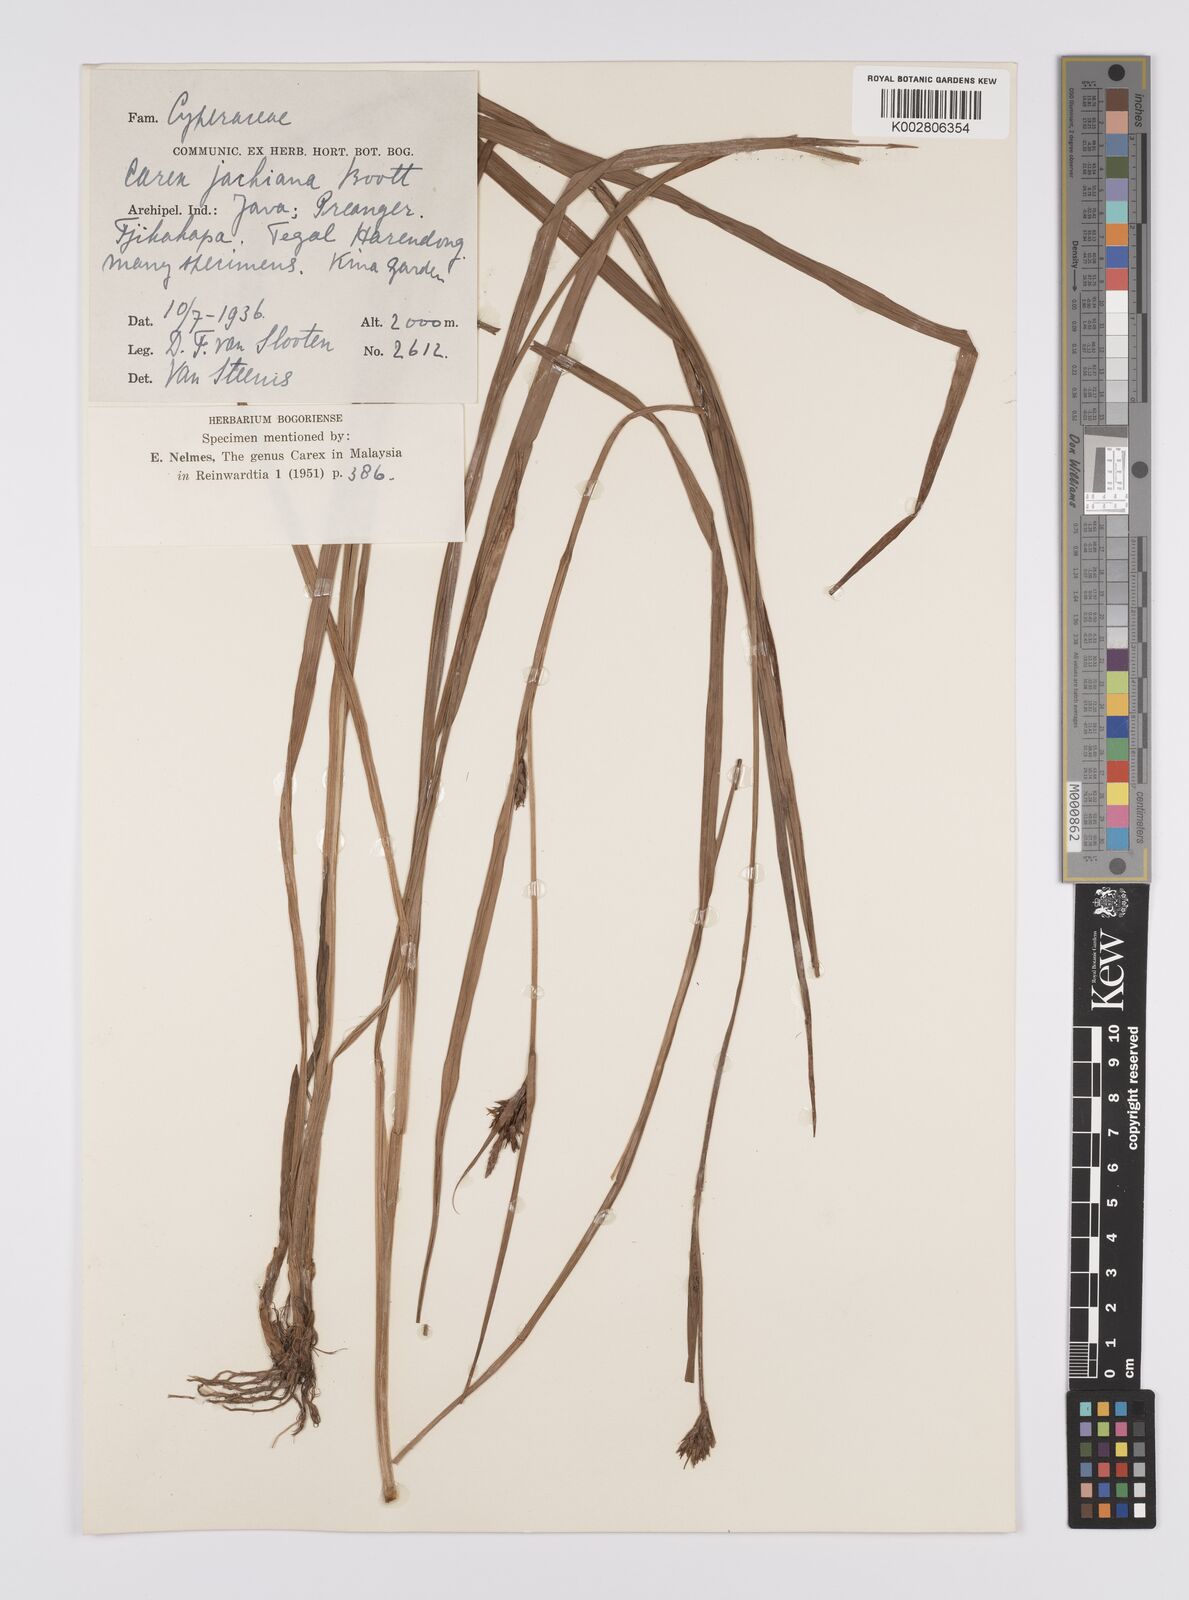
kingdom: Plantae
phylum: Tracheophyta
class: Liliopsida
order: Poales
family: Cyperaceae
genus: Carex
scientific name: Carex jackiana
